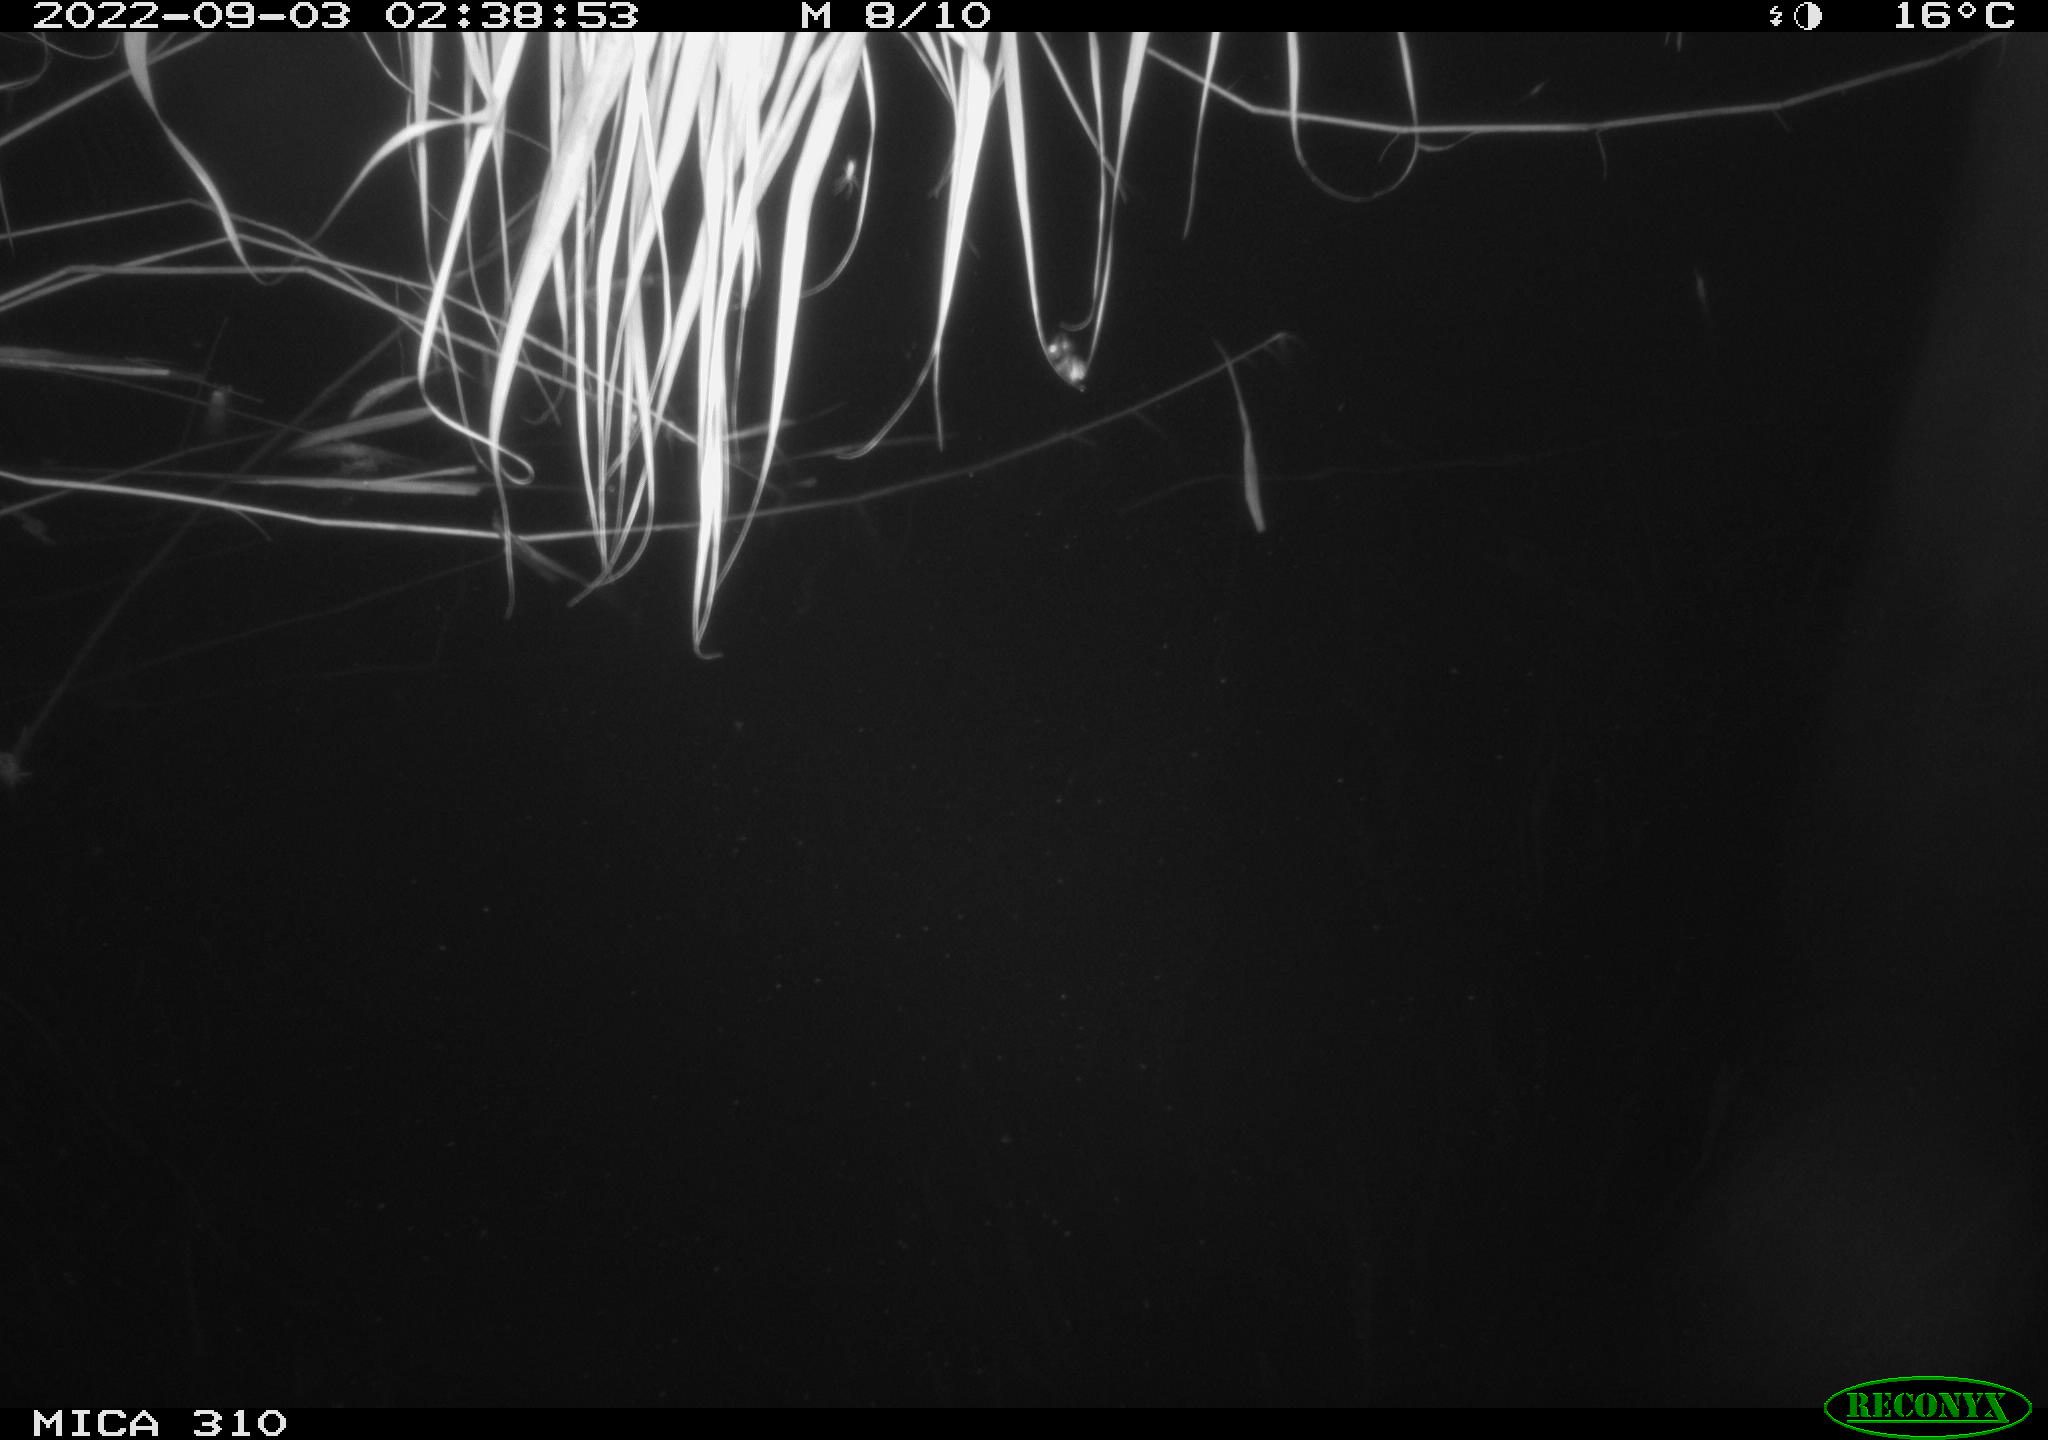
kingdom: Animalia
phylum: Chordata
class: Aves
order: Anseriformes
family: Anatidae
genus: Anas
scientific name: Anas platyrhynchos
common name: Mallard
